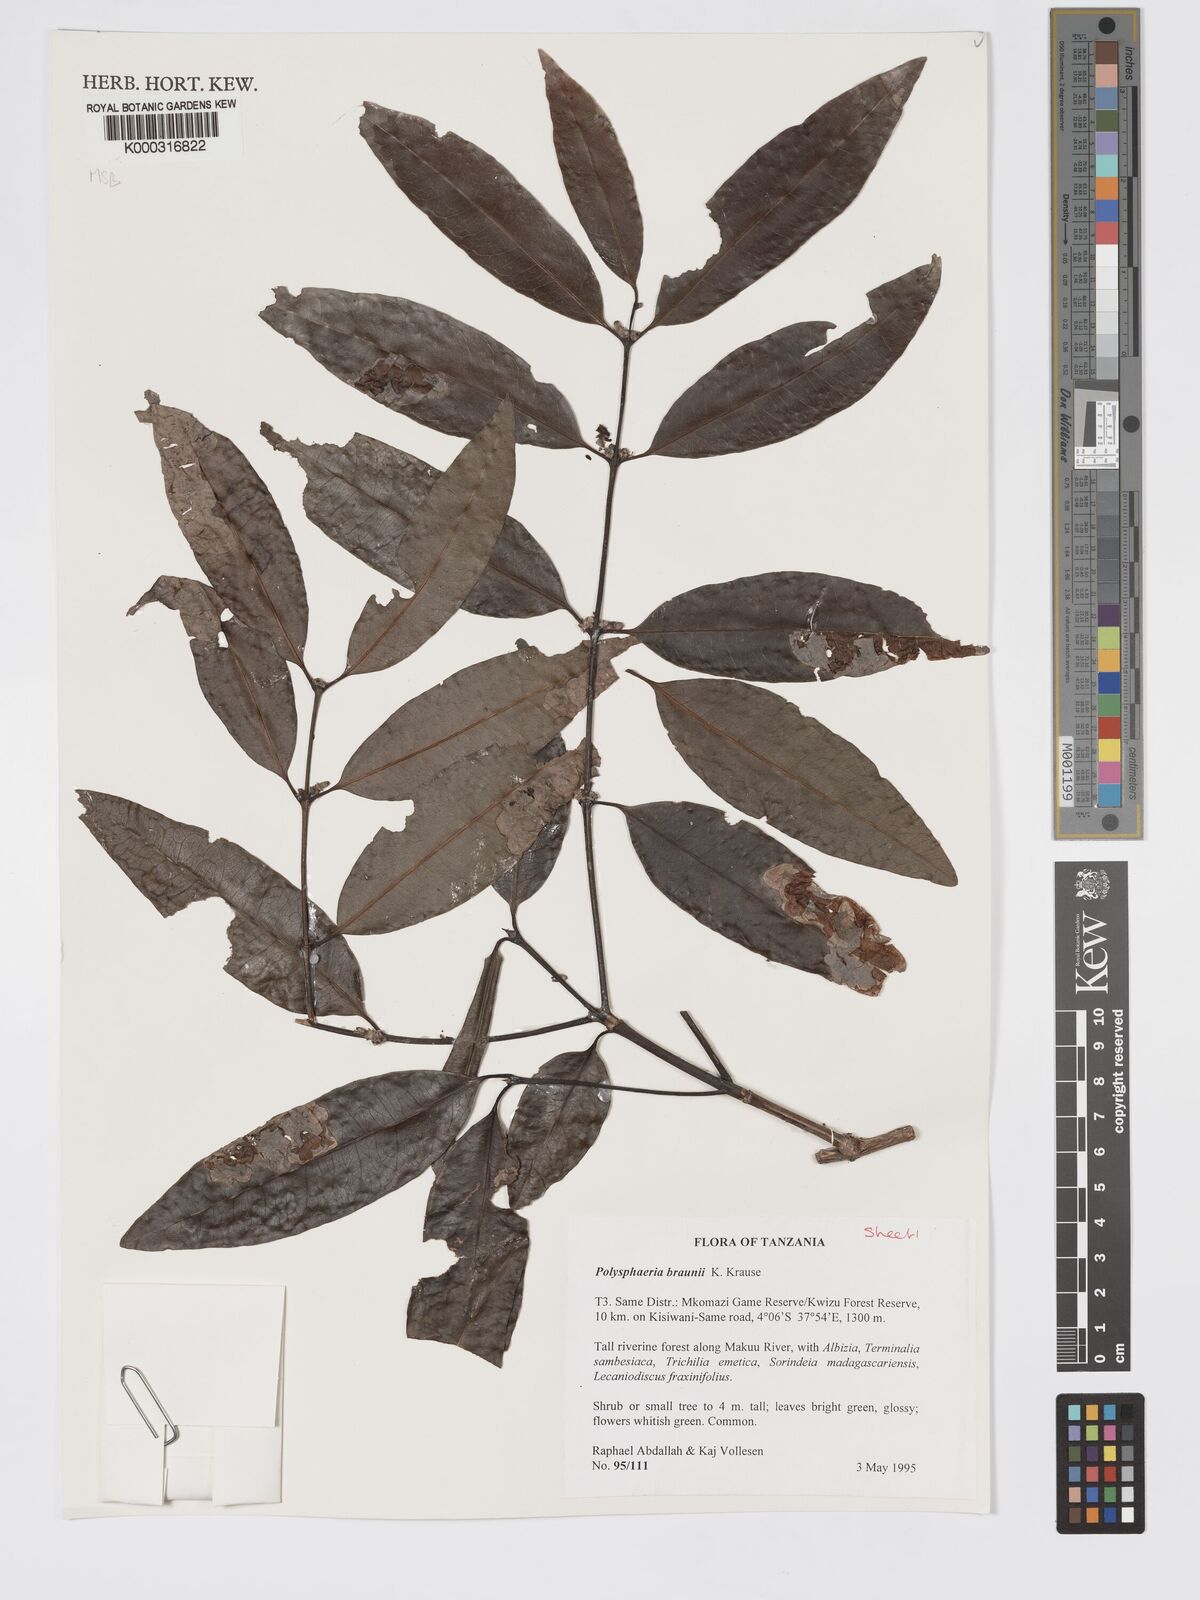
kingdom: Plantae
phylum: Tracheophyta
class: Magnoliopsida
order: Gentianales
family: Rubiaceae
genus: Polysphaeria
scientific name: Polysphaeria braunii
